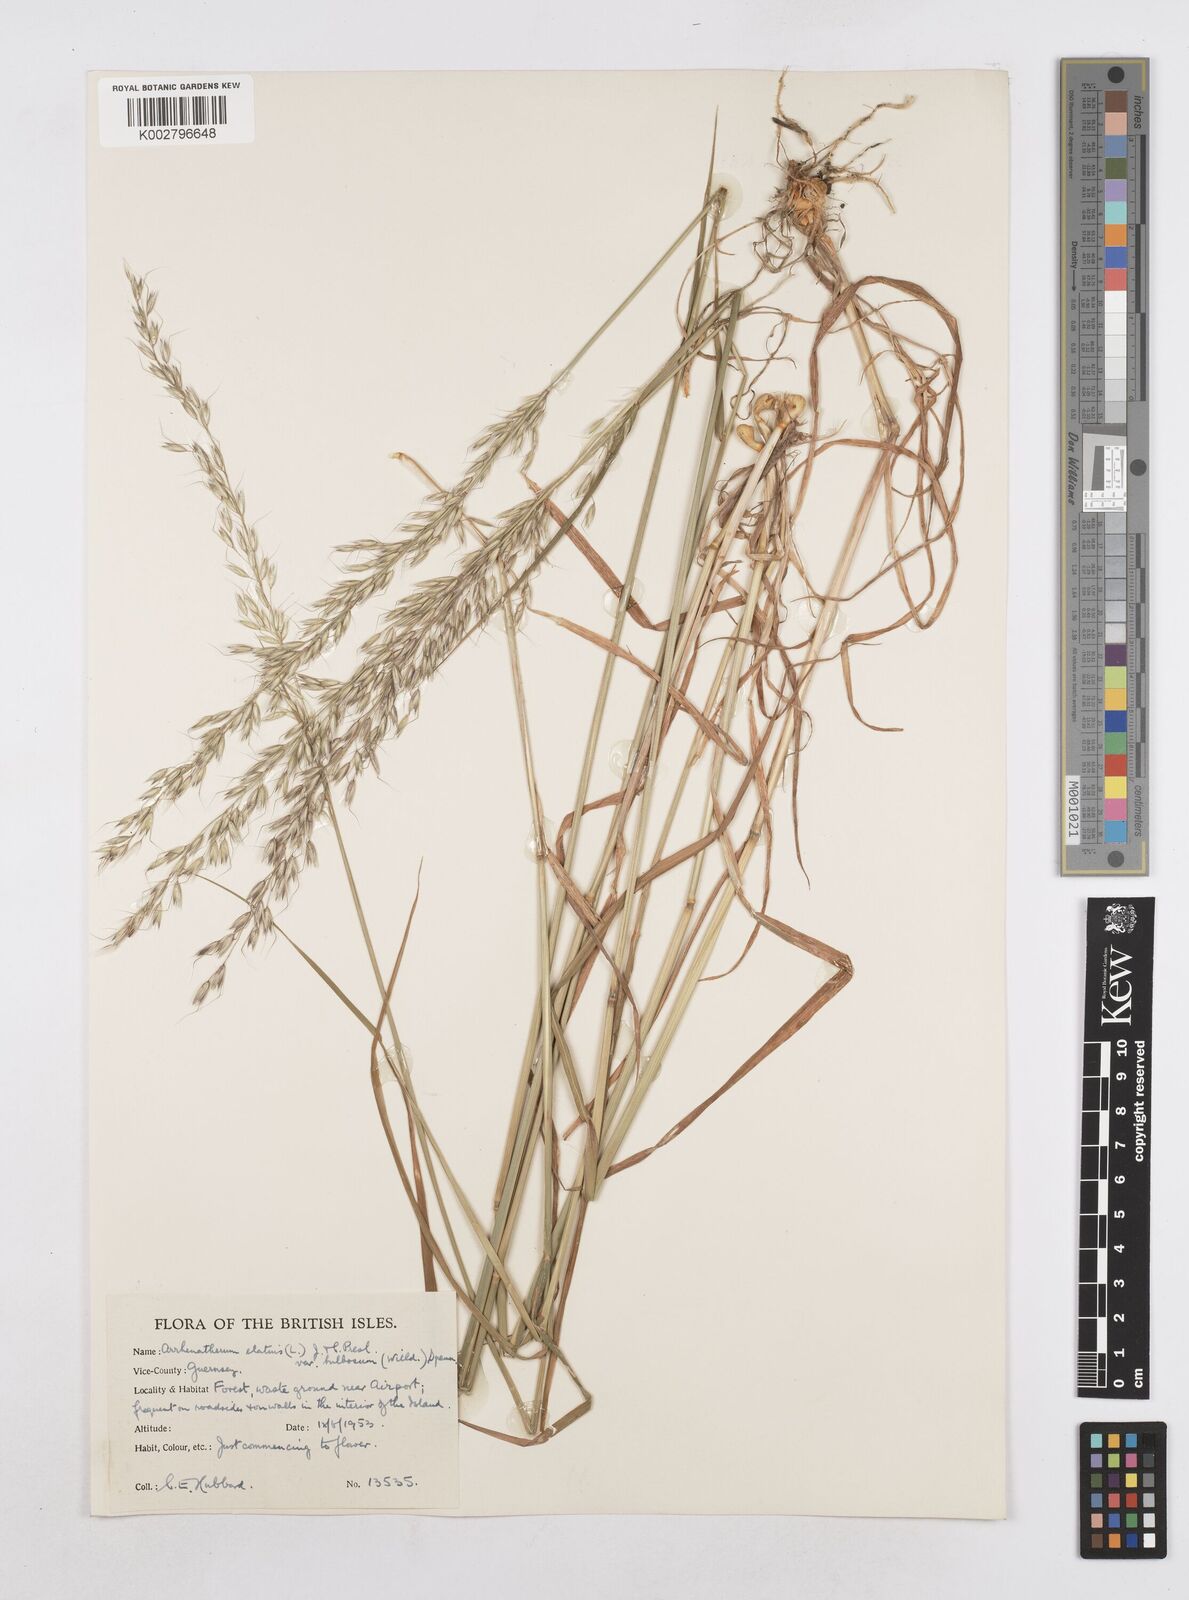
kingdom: Plantae
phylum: Tracheophyta
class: Liliopsida
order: Poales
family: Poaceae
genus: Arrhenatherum
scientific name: Arrhenatherum elatius
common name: Tall oatgrass
